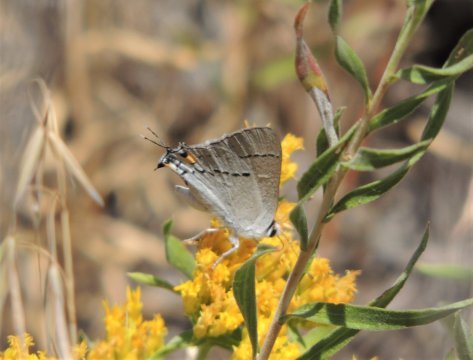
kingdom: Animalia
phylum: Arthropoda
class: Insecta
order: Lepidoptera
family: Lycaenidae
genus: Strymon
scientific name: Strymon melinus
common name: Gray Hairstreak
